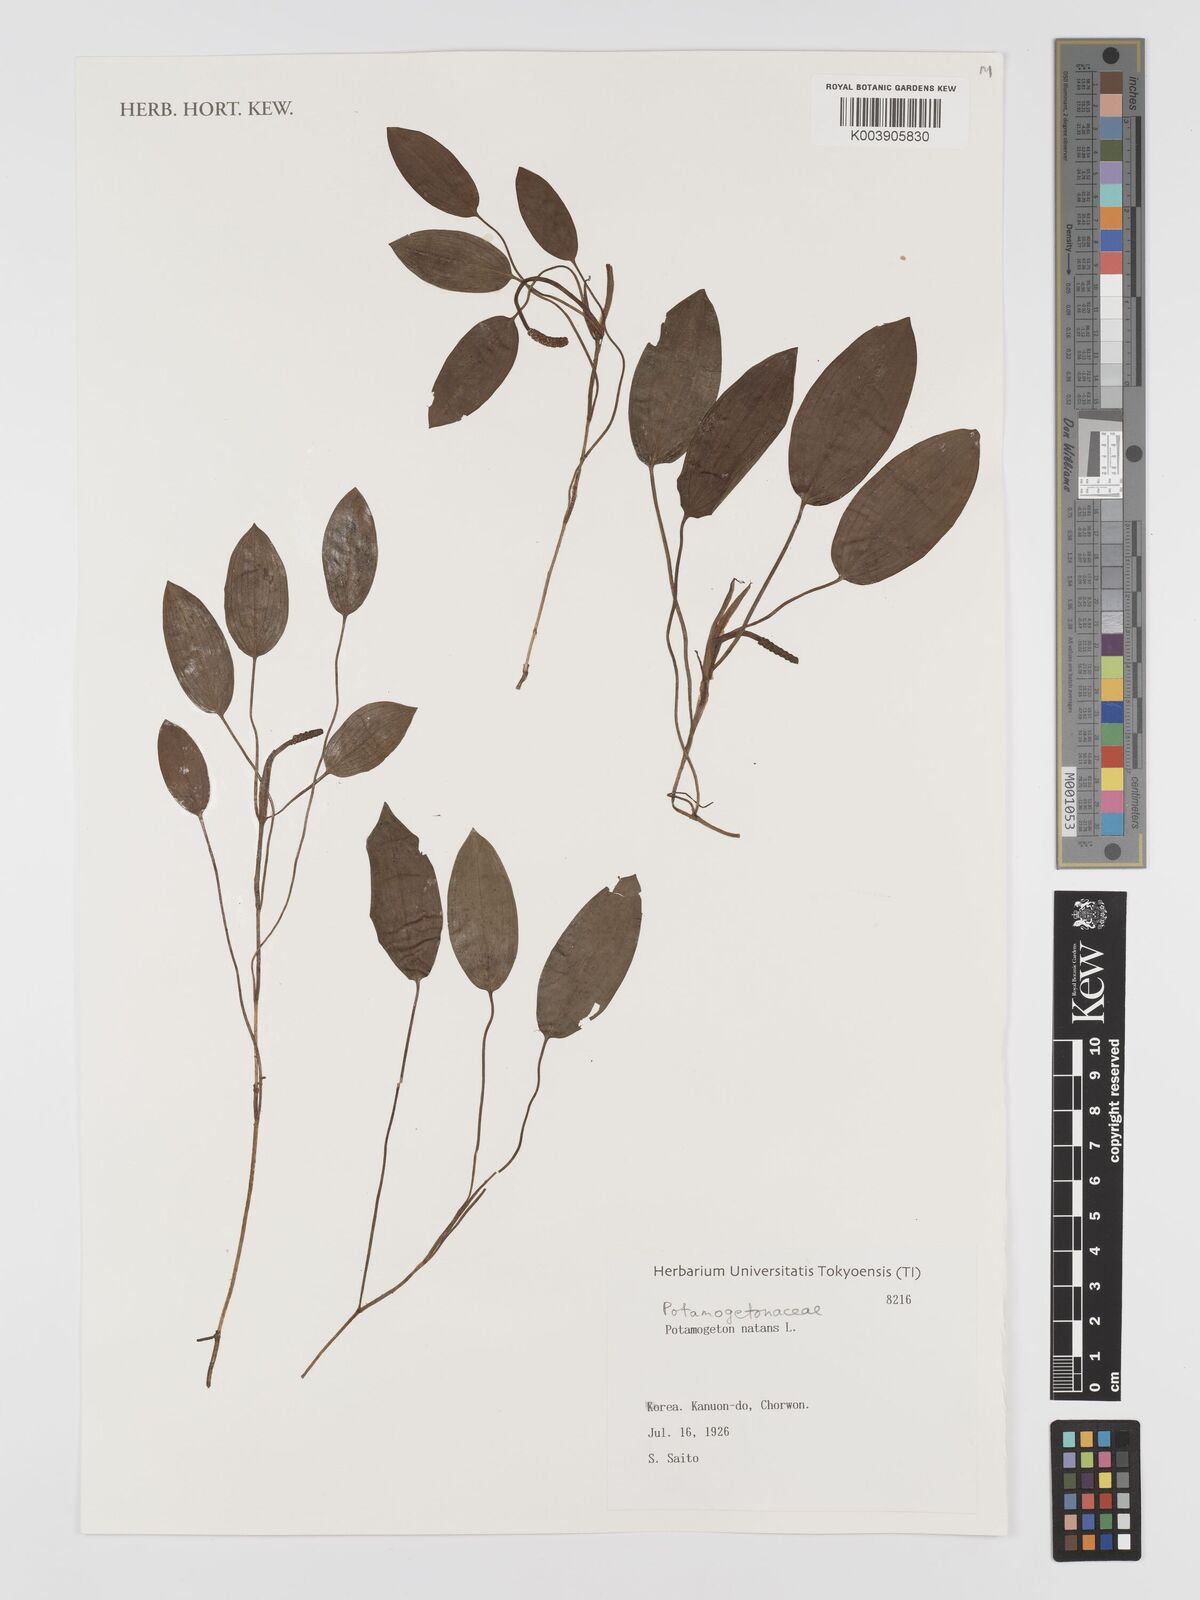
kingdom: Plantae
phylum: Tracheophyta
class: Liliopsida
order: Alismatales
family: Potamogetonaceae
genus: Potamogeton
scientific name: Potamogeton natans
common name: Broad-leaved pondweed
